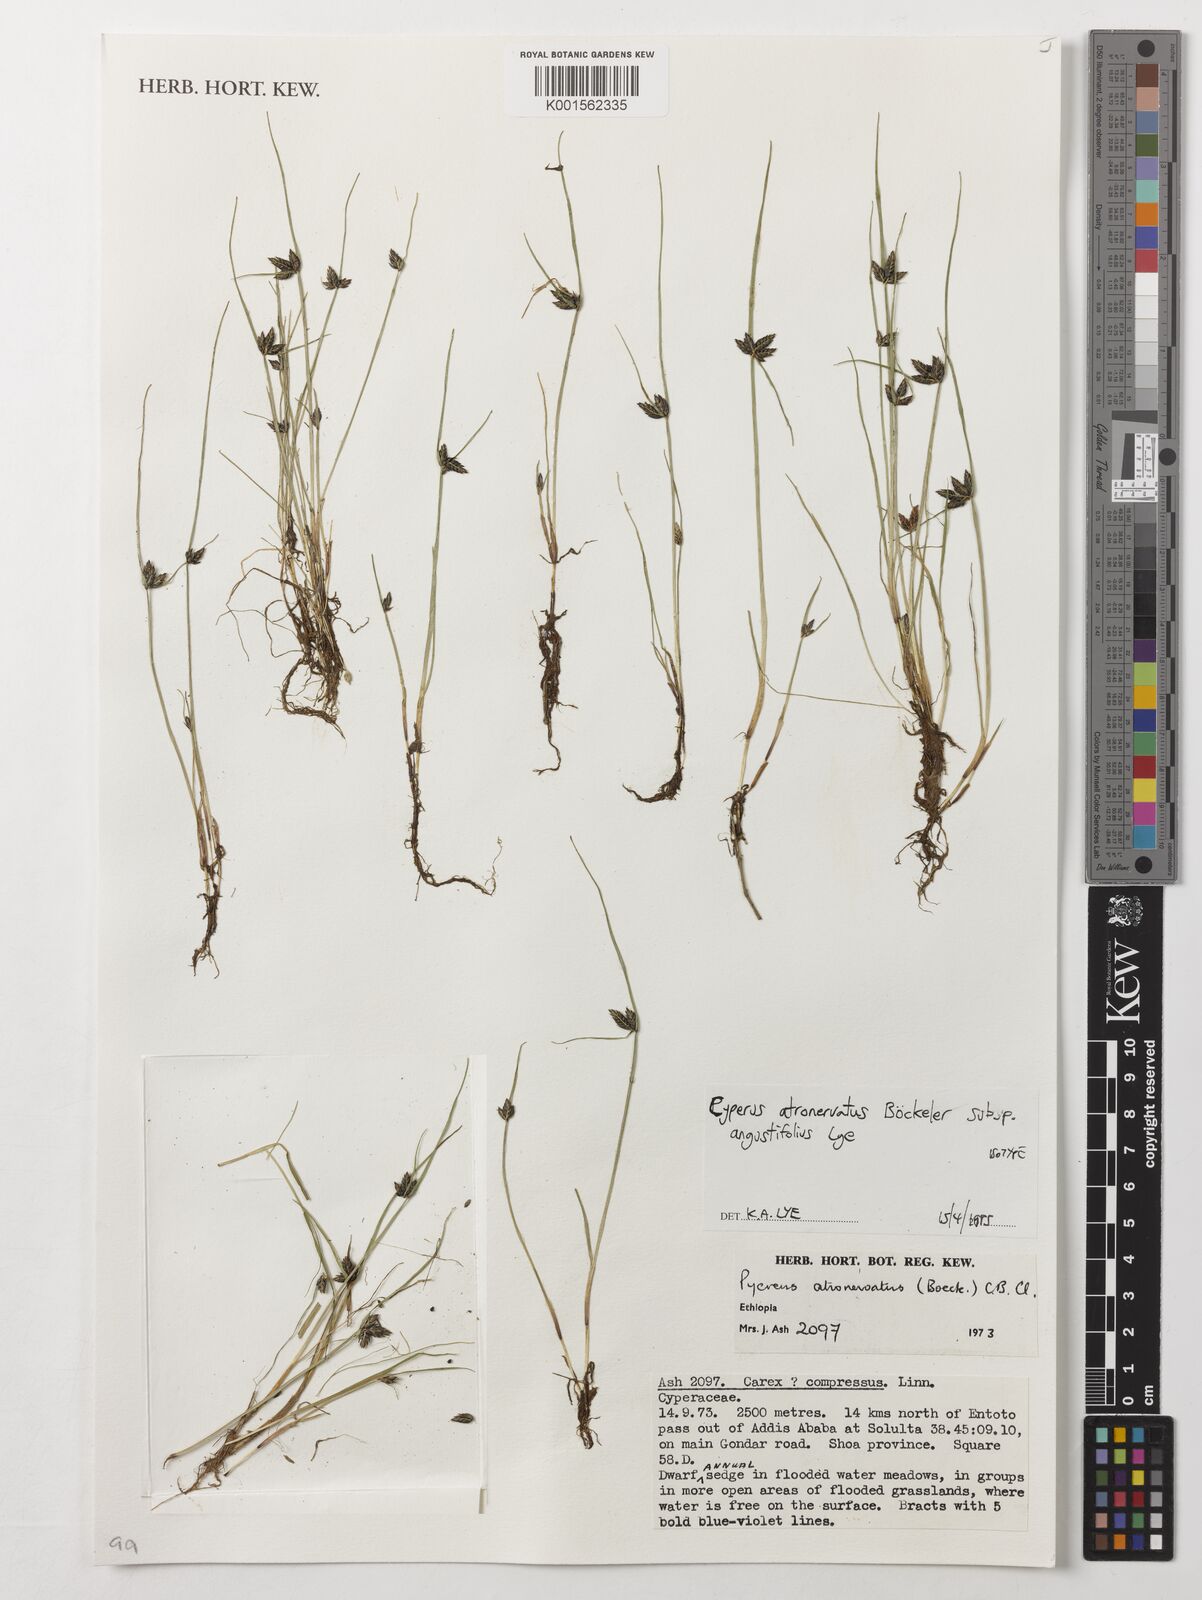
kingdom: Plantae
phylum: Tracheophyta
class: Liliopsida
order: Poales
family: Cyperaceae
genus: Cyperus
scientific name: Cyperus atronervatus
